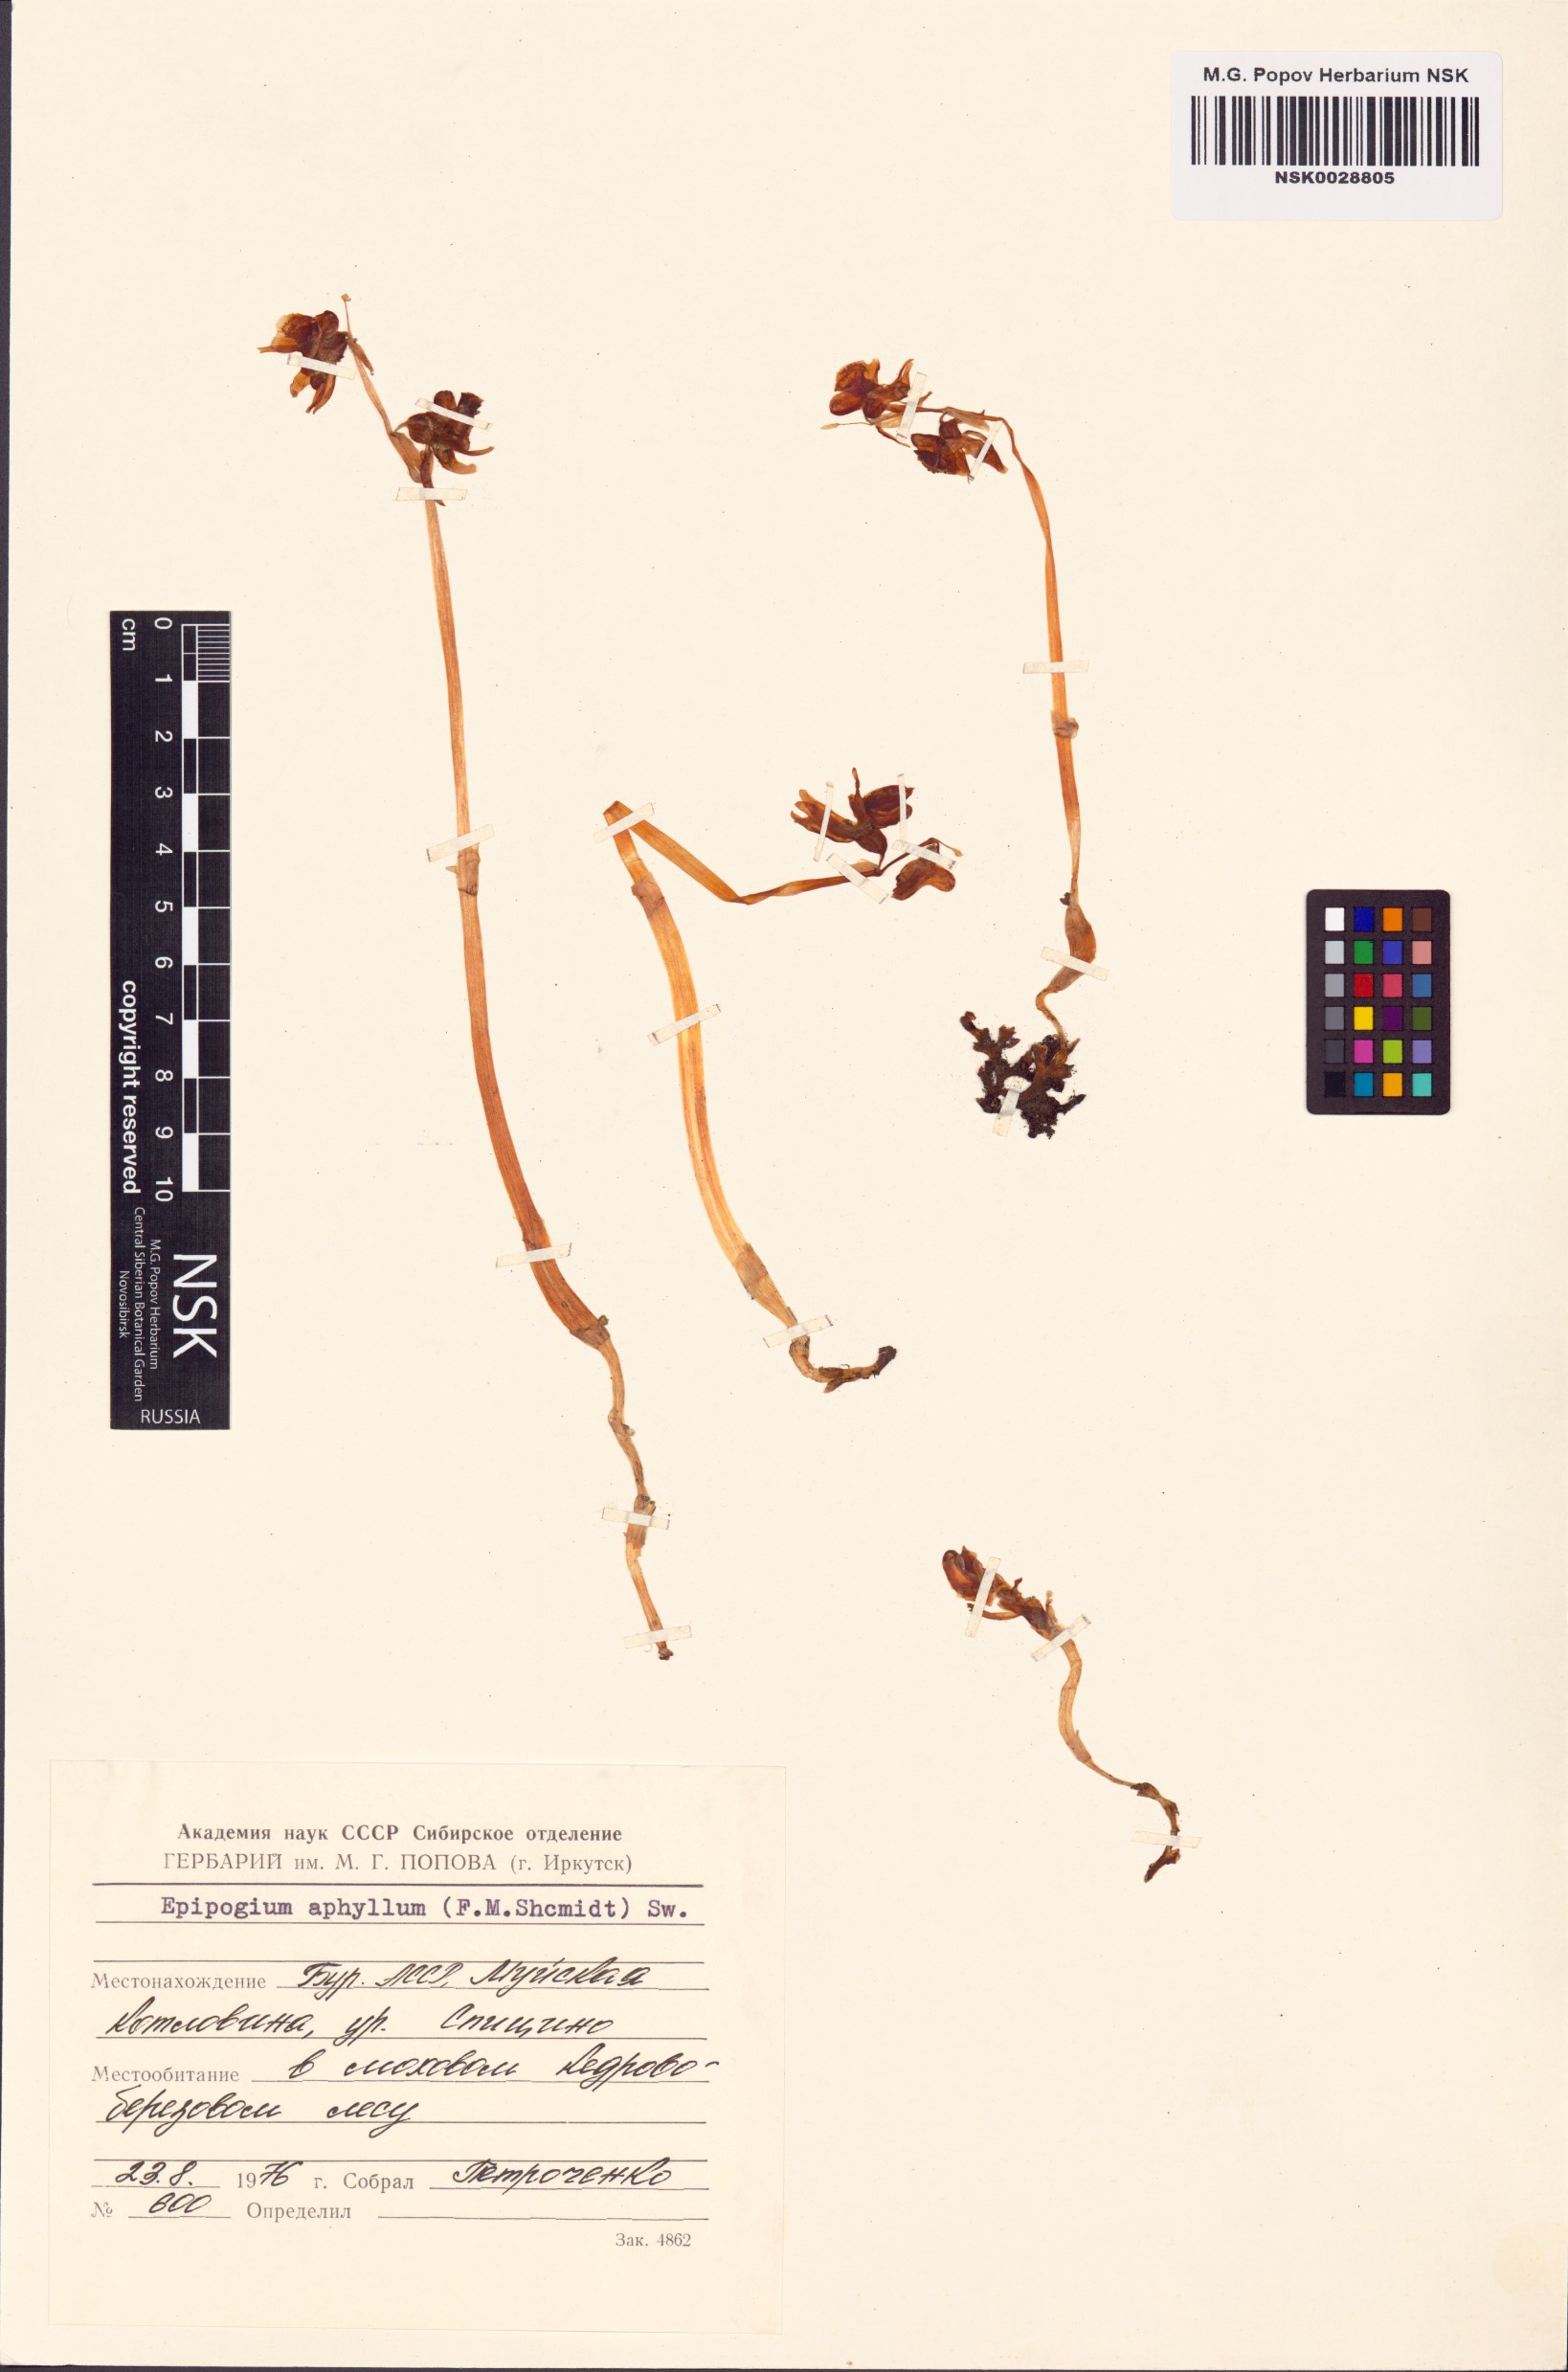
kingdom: Plantae
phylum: Tracheophyta
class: Liliopsida
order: Asparagales
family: Orchidaceae
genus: Epipogium
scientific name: Epipogium aphyllum
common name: Ghost orchid
